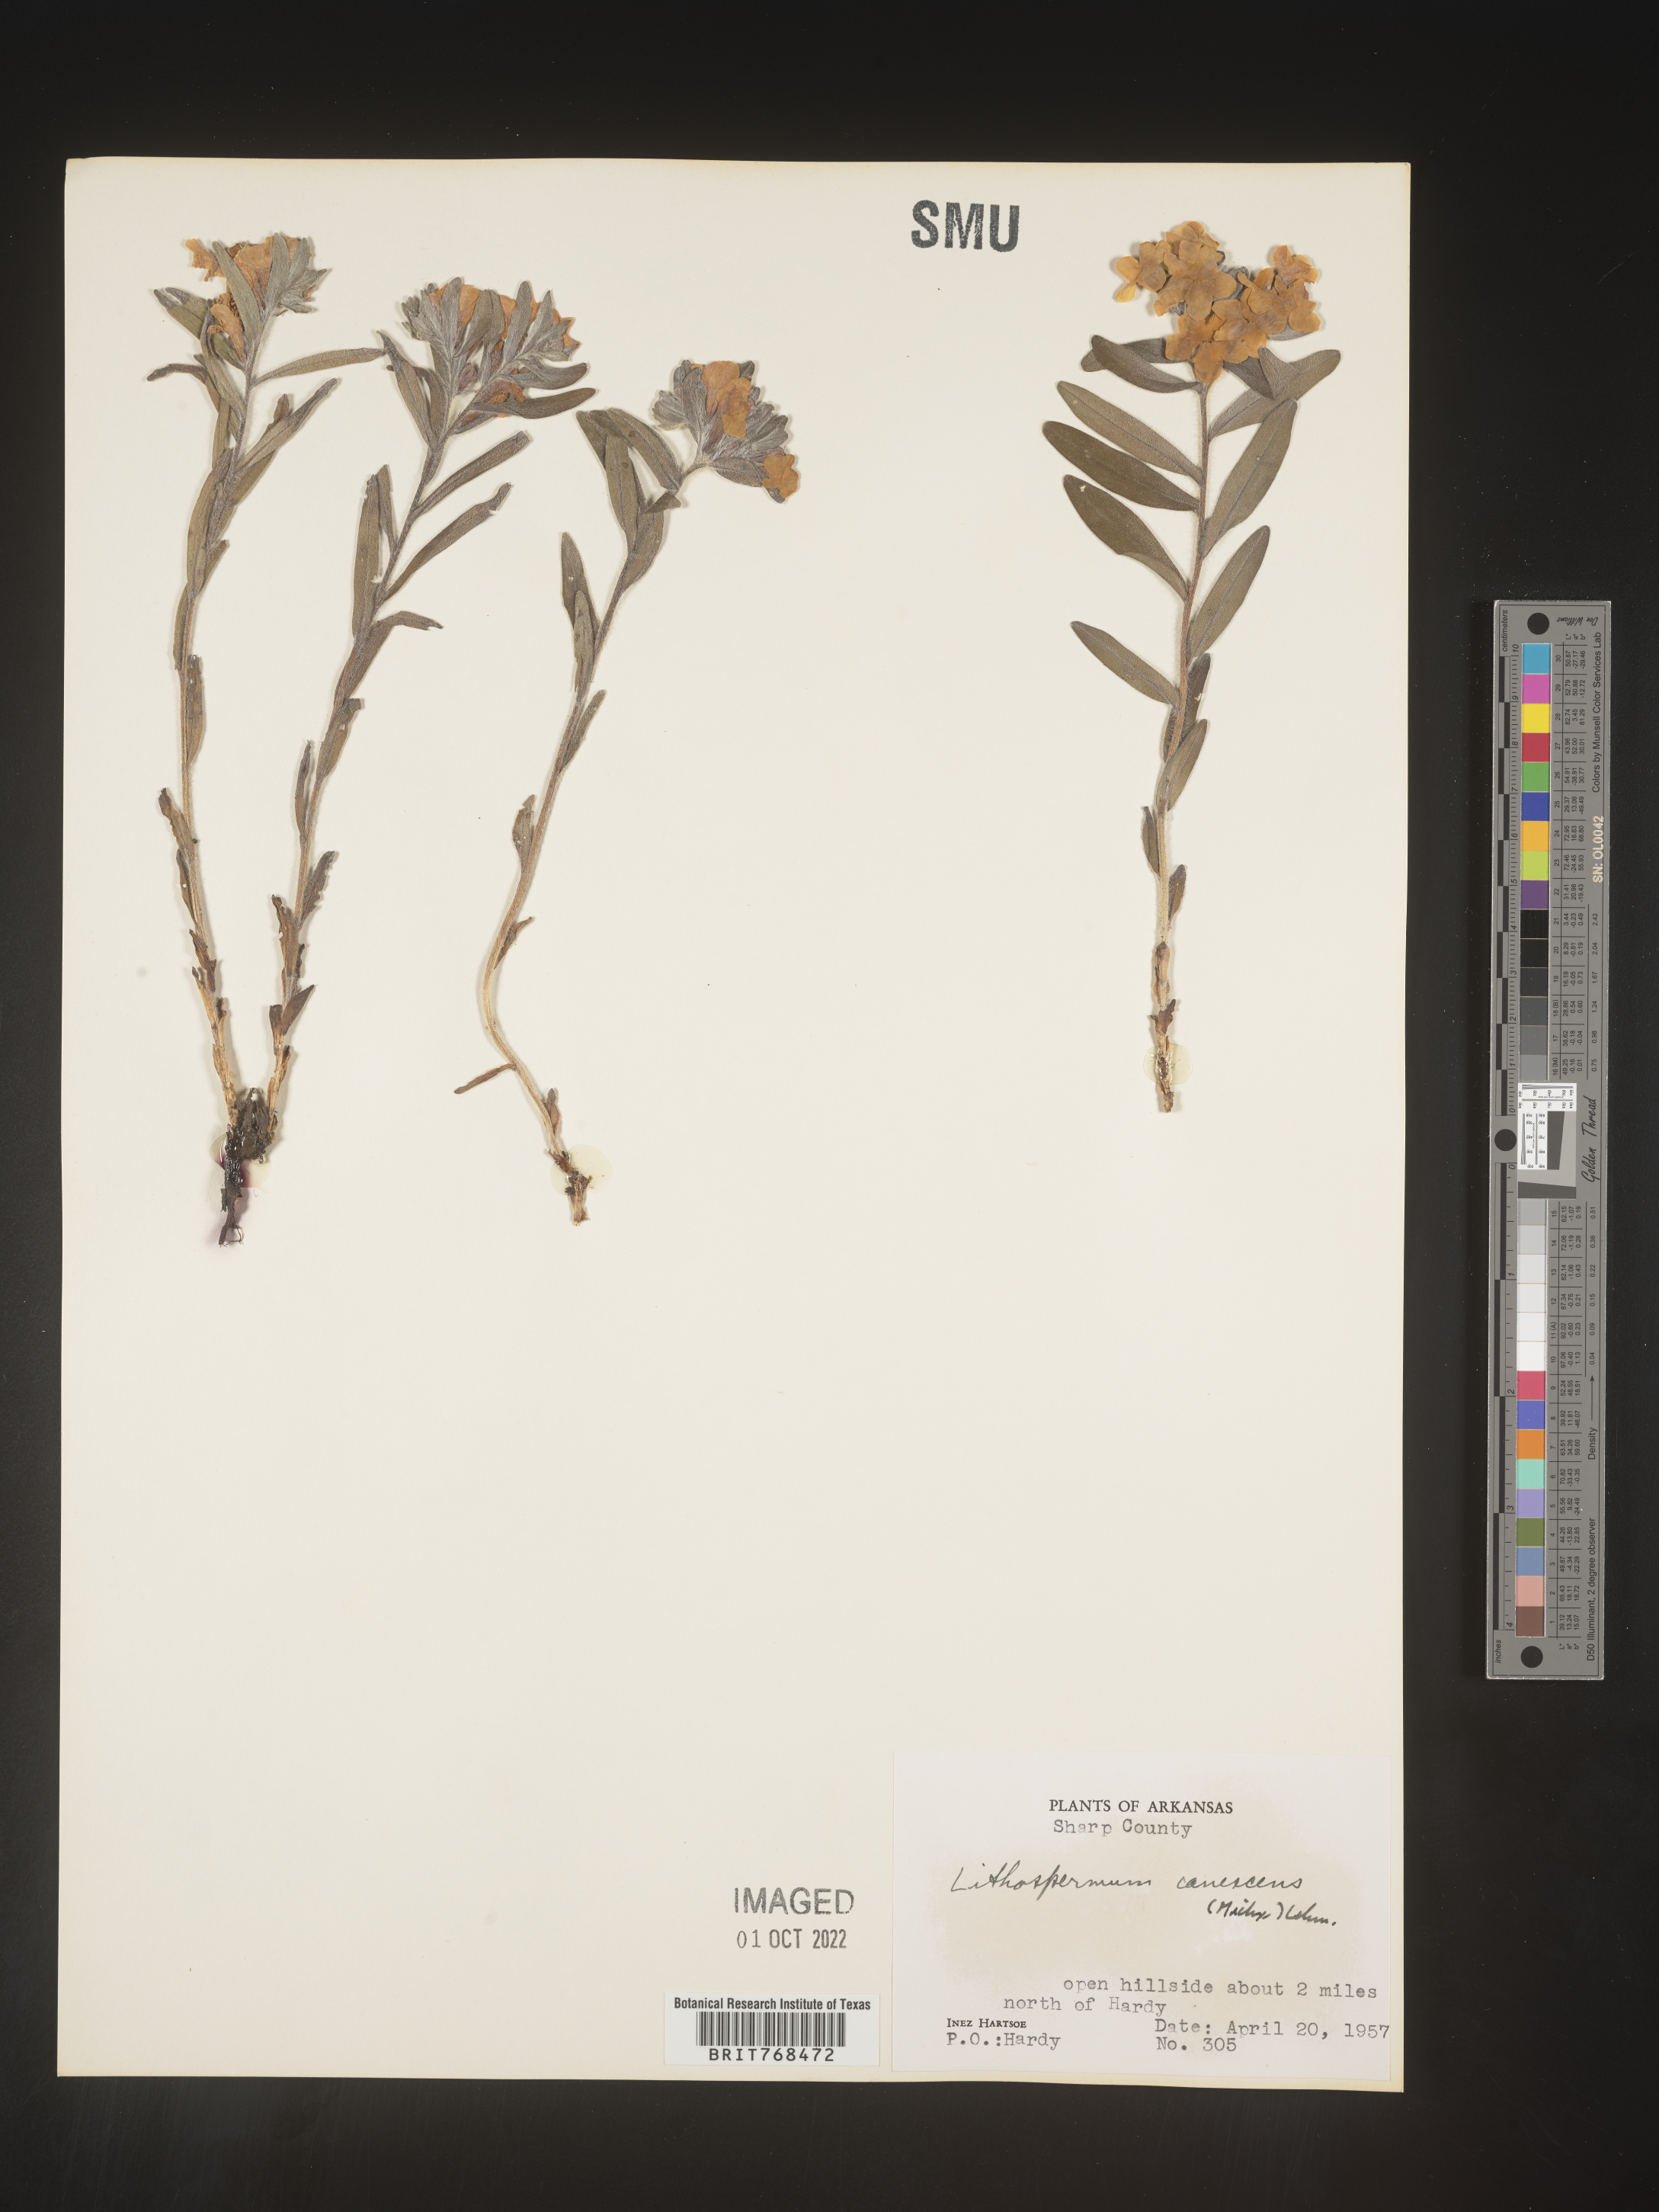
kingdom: Plantae
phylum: Tracheophyta
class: Magnoliopsida
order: Boraginales
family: Boraginaceae
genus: Lithospermum
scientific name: Lithospermum canescens
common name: Hoary puccoon
